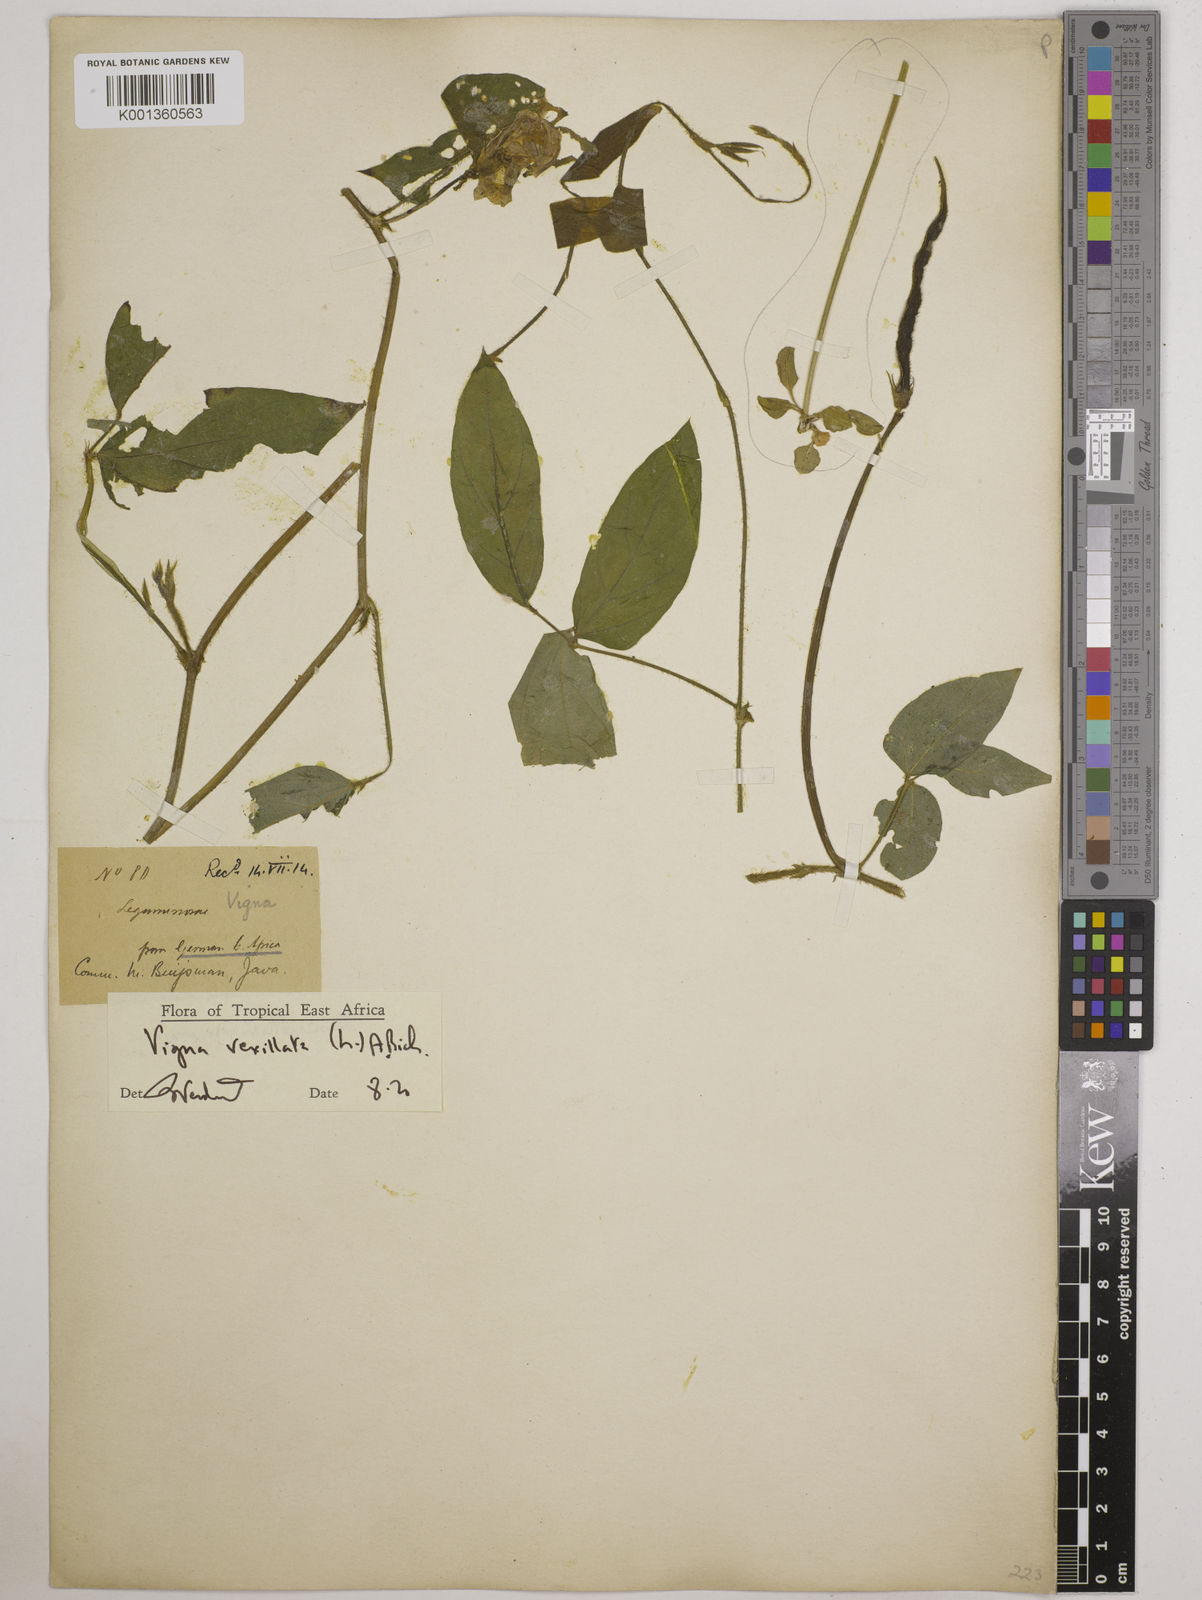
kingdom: Plantae
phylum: Tracheophyta
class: Magnoliopsida
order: Fabales
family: Fabaceae
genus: Vigna
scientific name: Vigna vexillata
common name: Zombi pea
